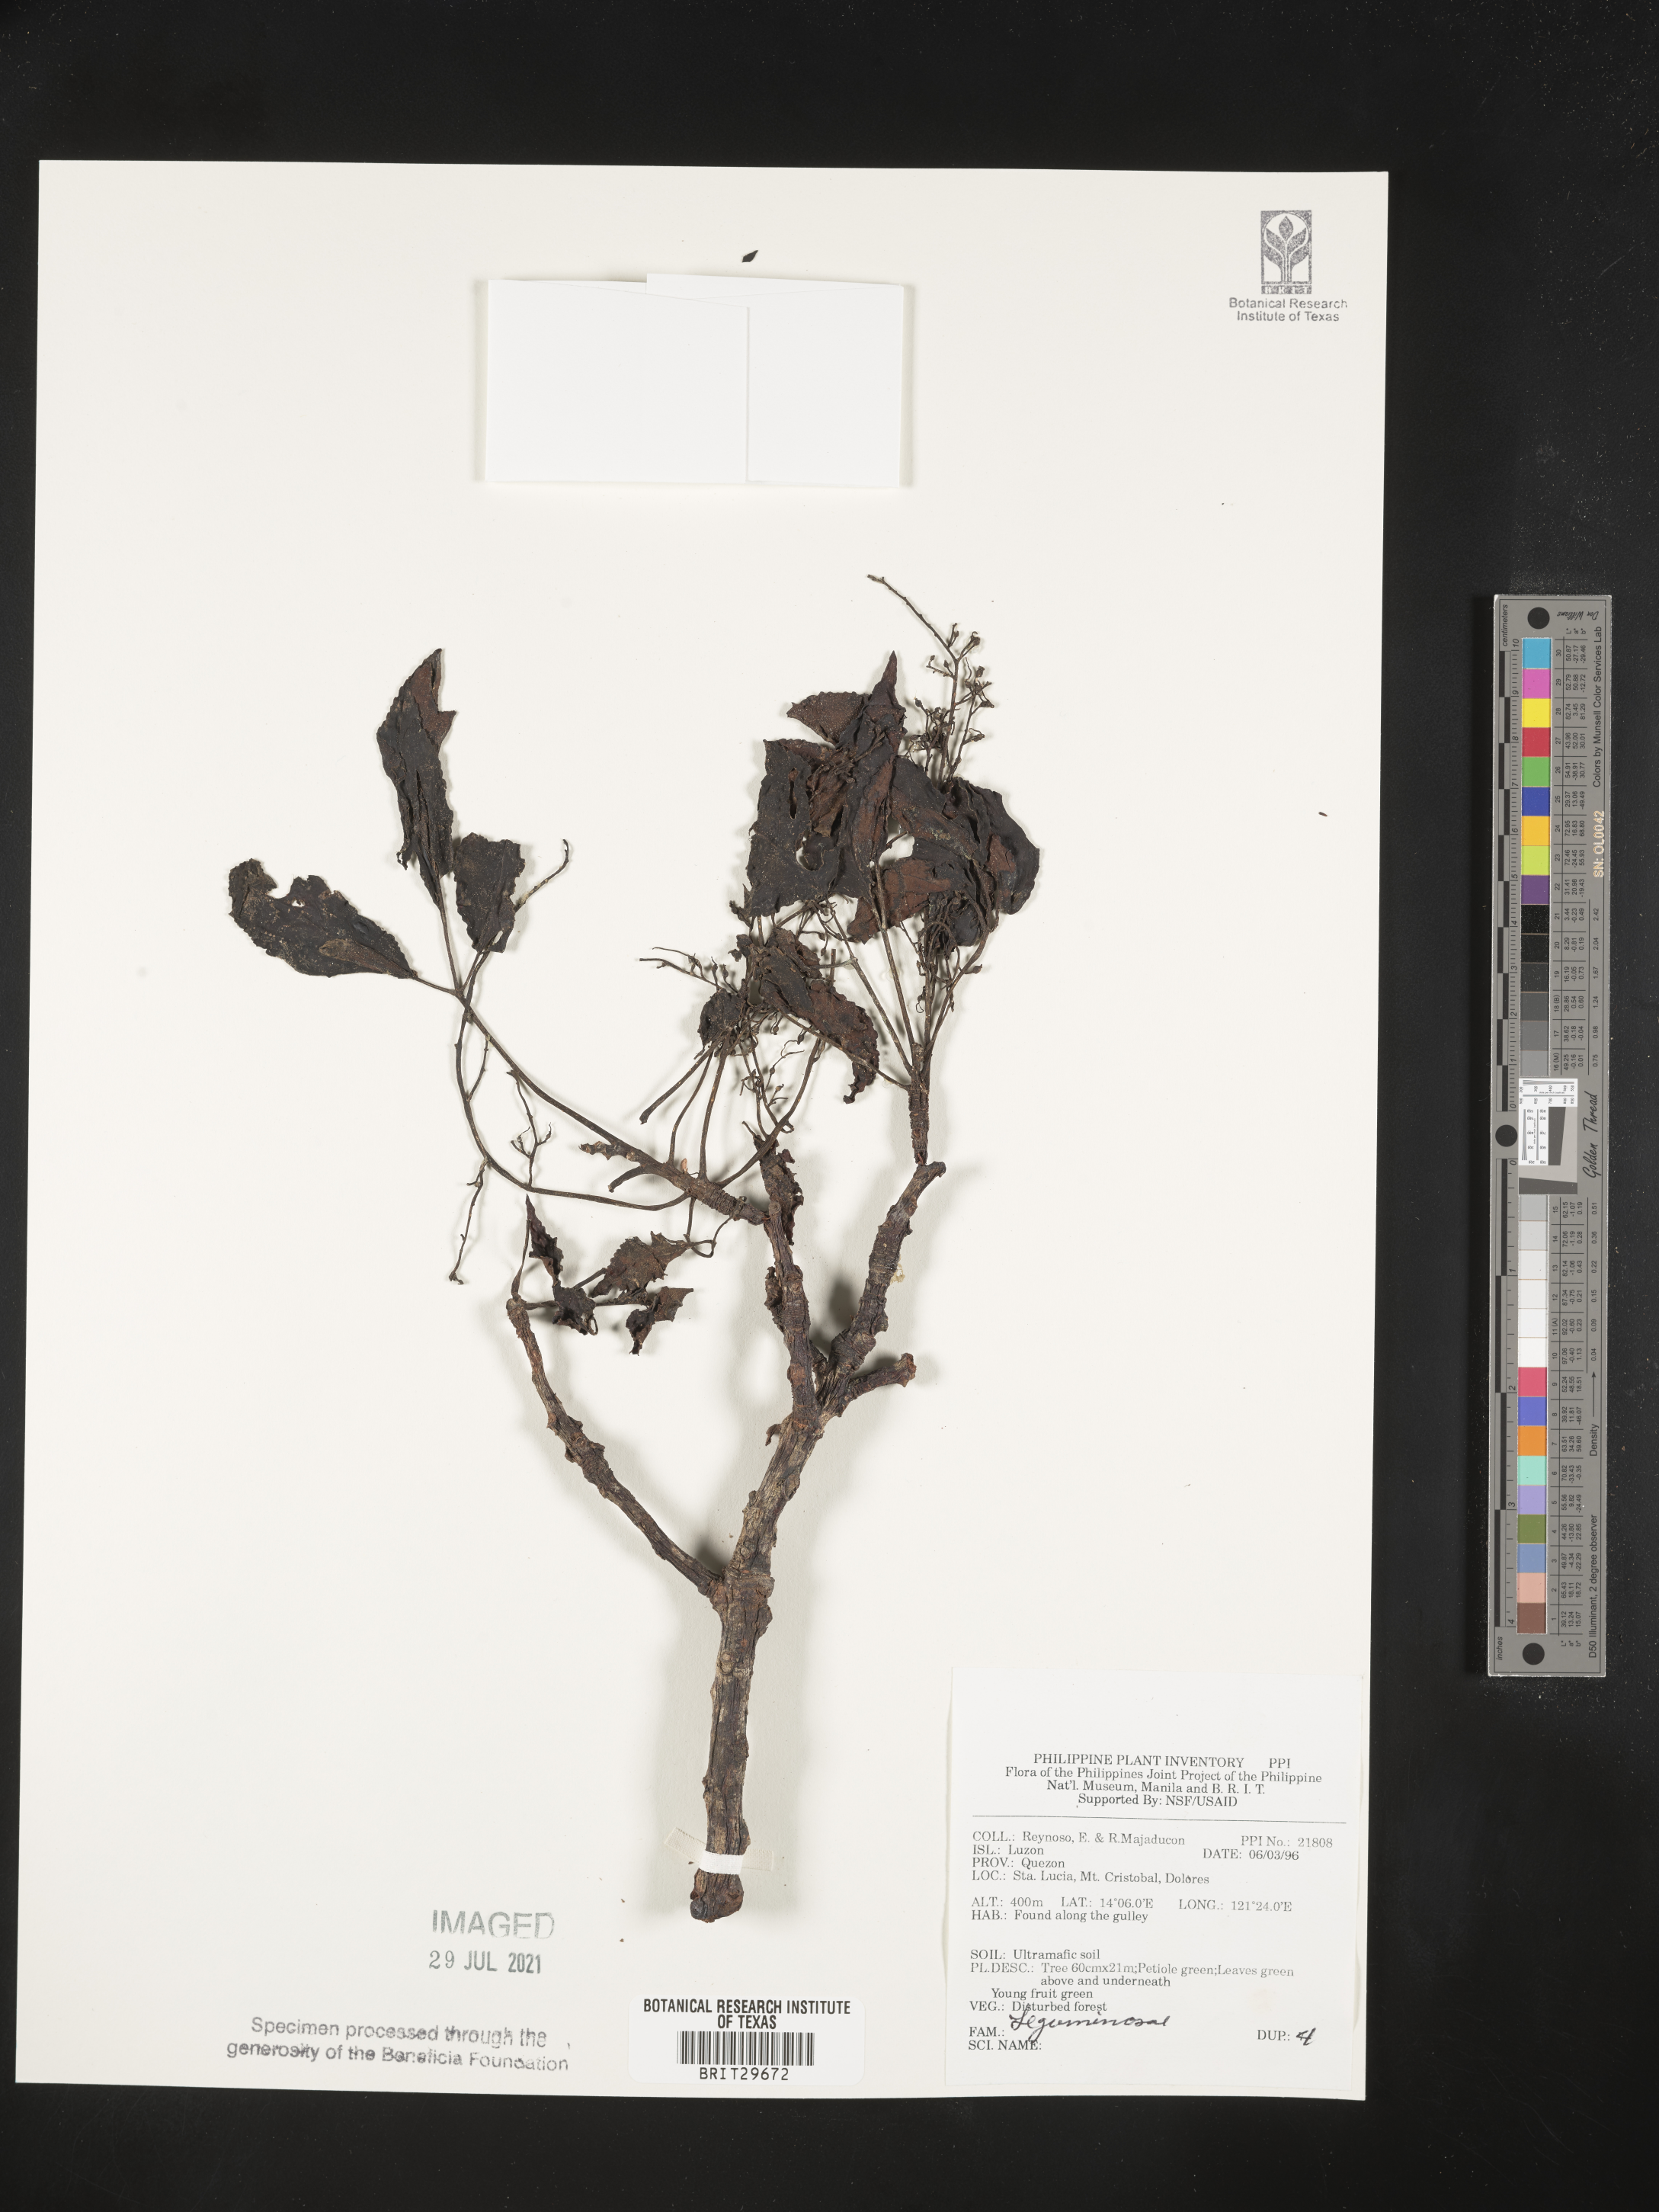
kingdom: Plantae
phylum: Tracheophyta
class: Magnoliopsida
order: Fabales
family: Fabaceae
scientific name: Fabaceae
